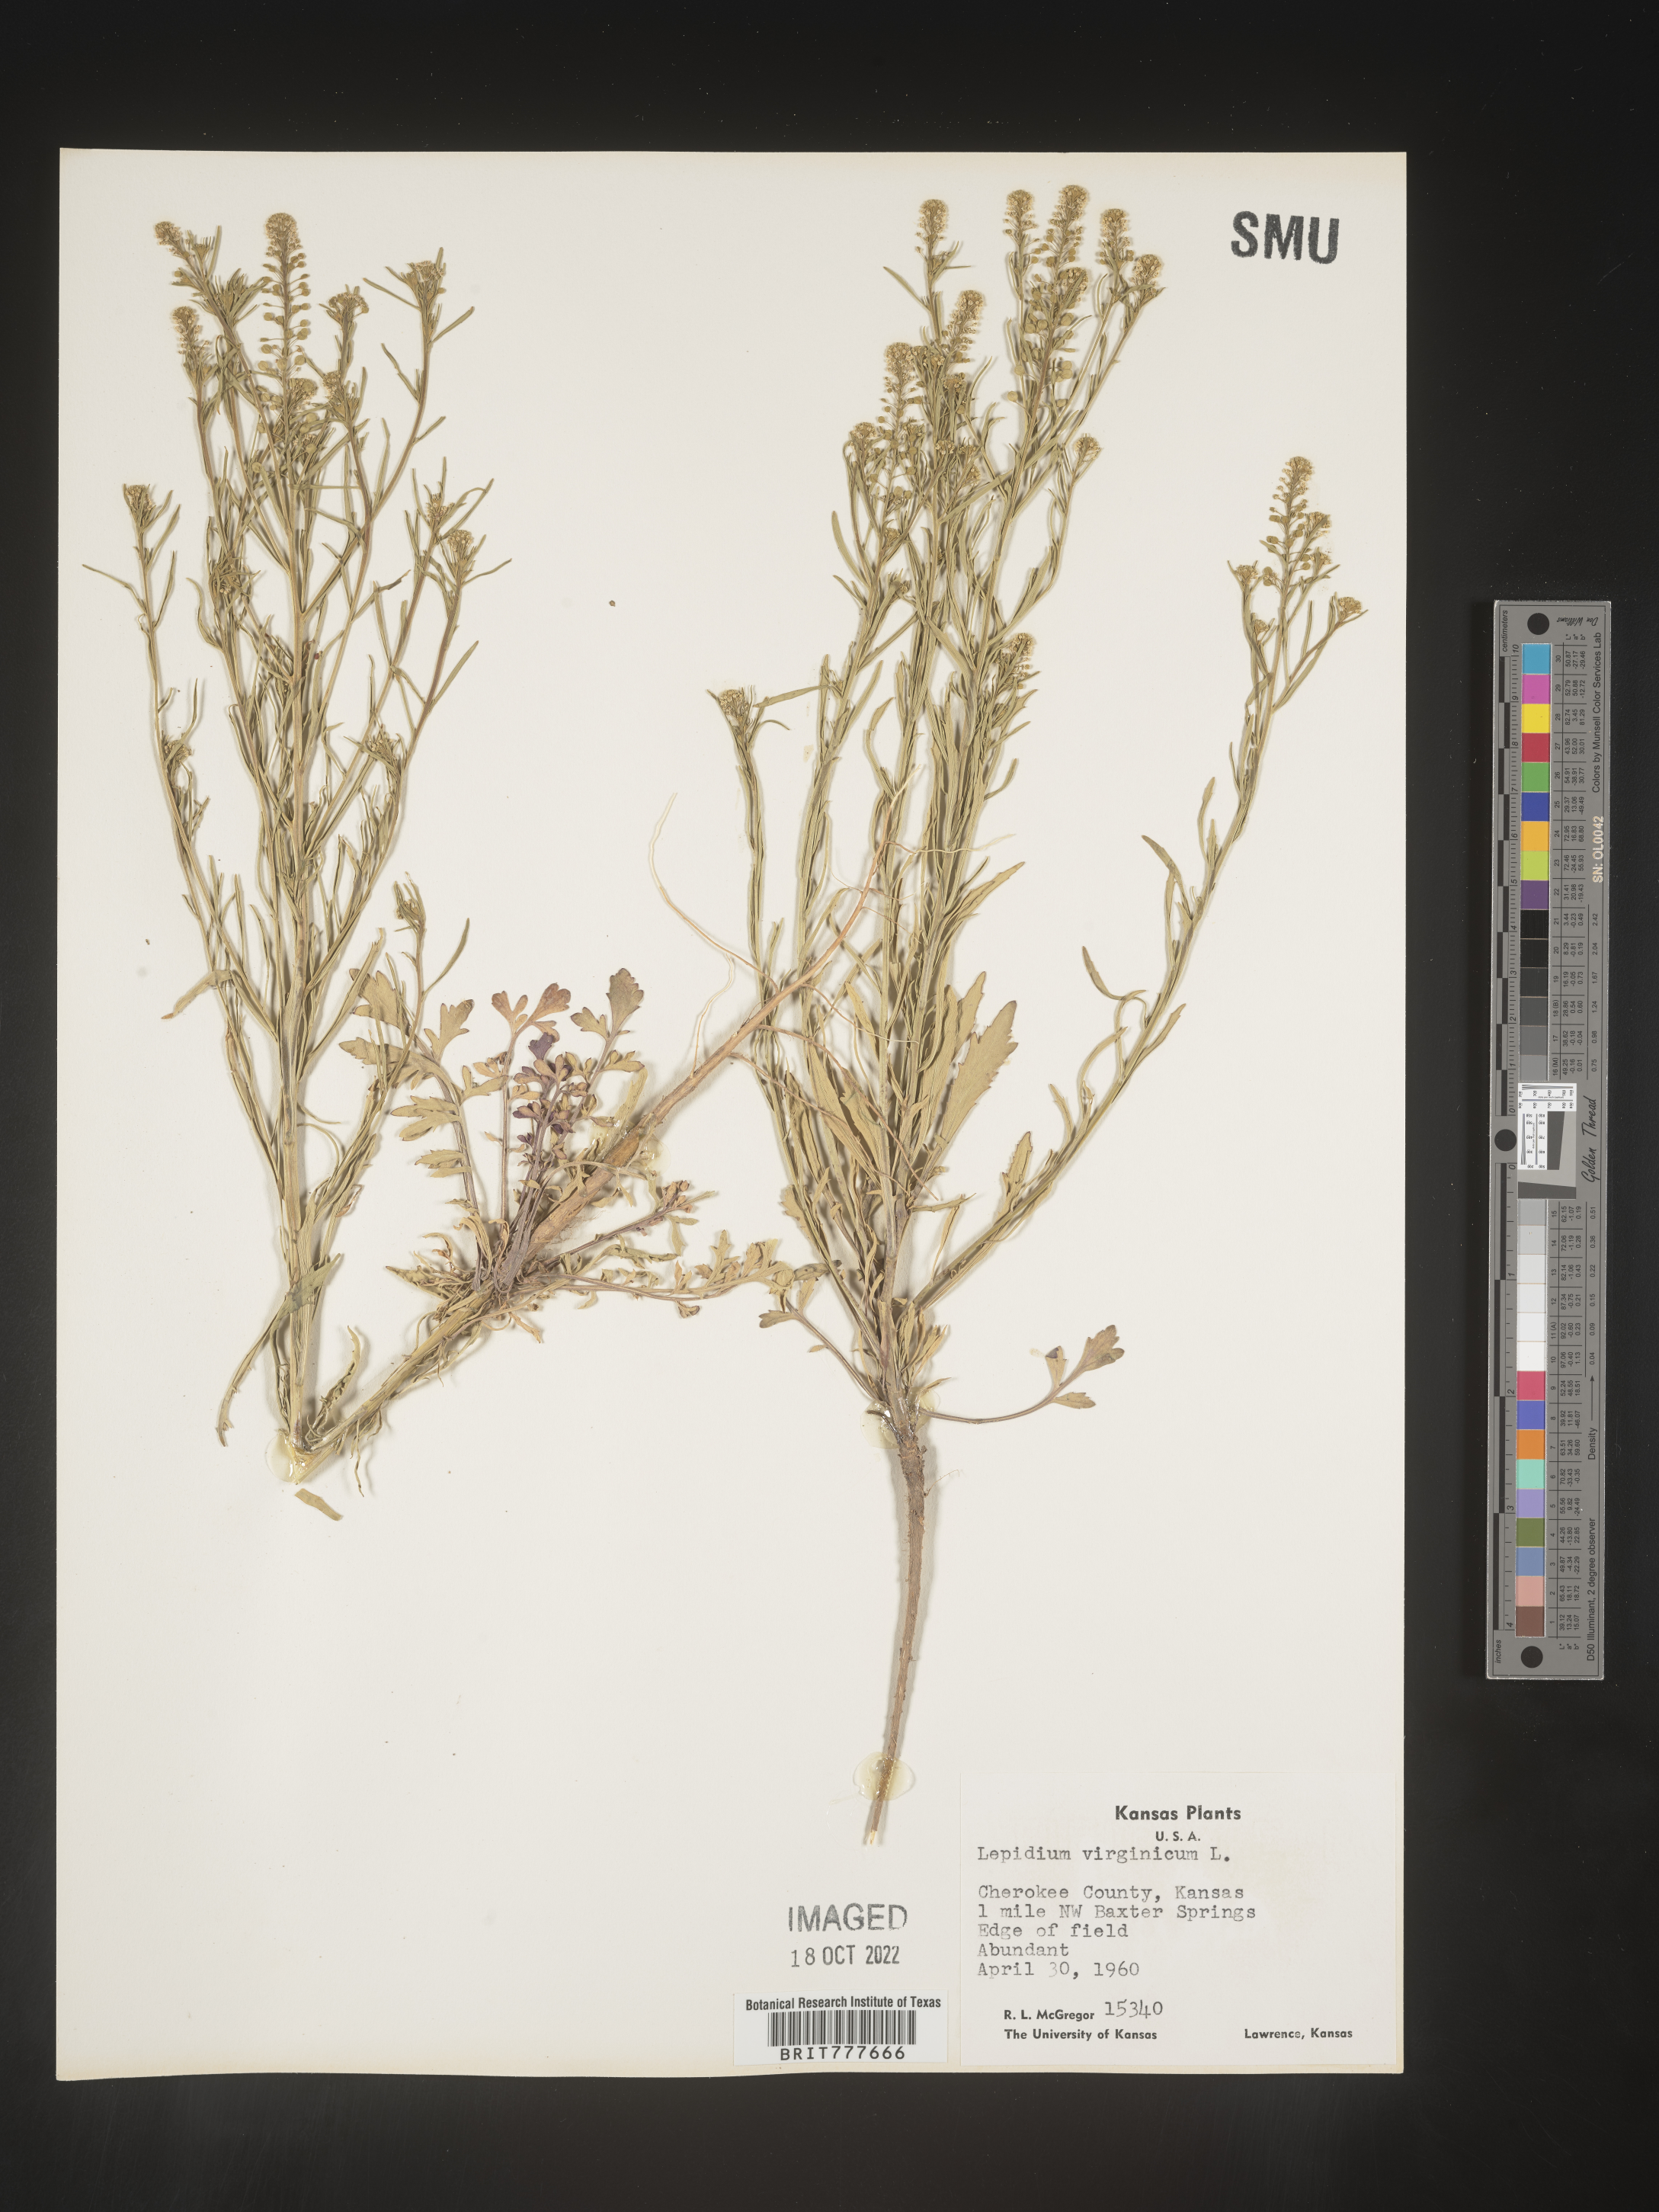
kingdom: Plantae
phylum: Tracheophyta
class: Magnoliopsida
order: Brassicales
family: Brassicaceae
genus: Lepidium
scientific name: Lepidium virginicum
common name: Least pepperwort
